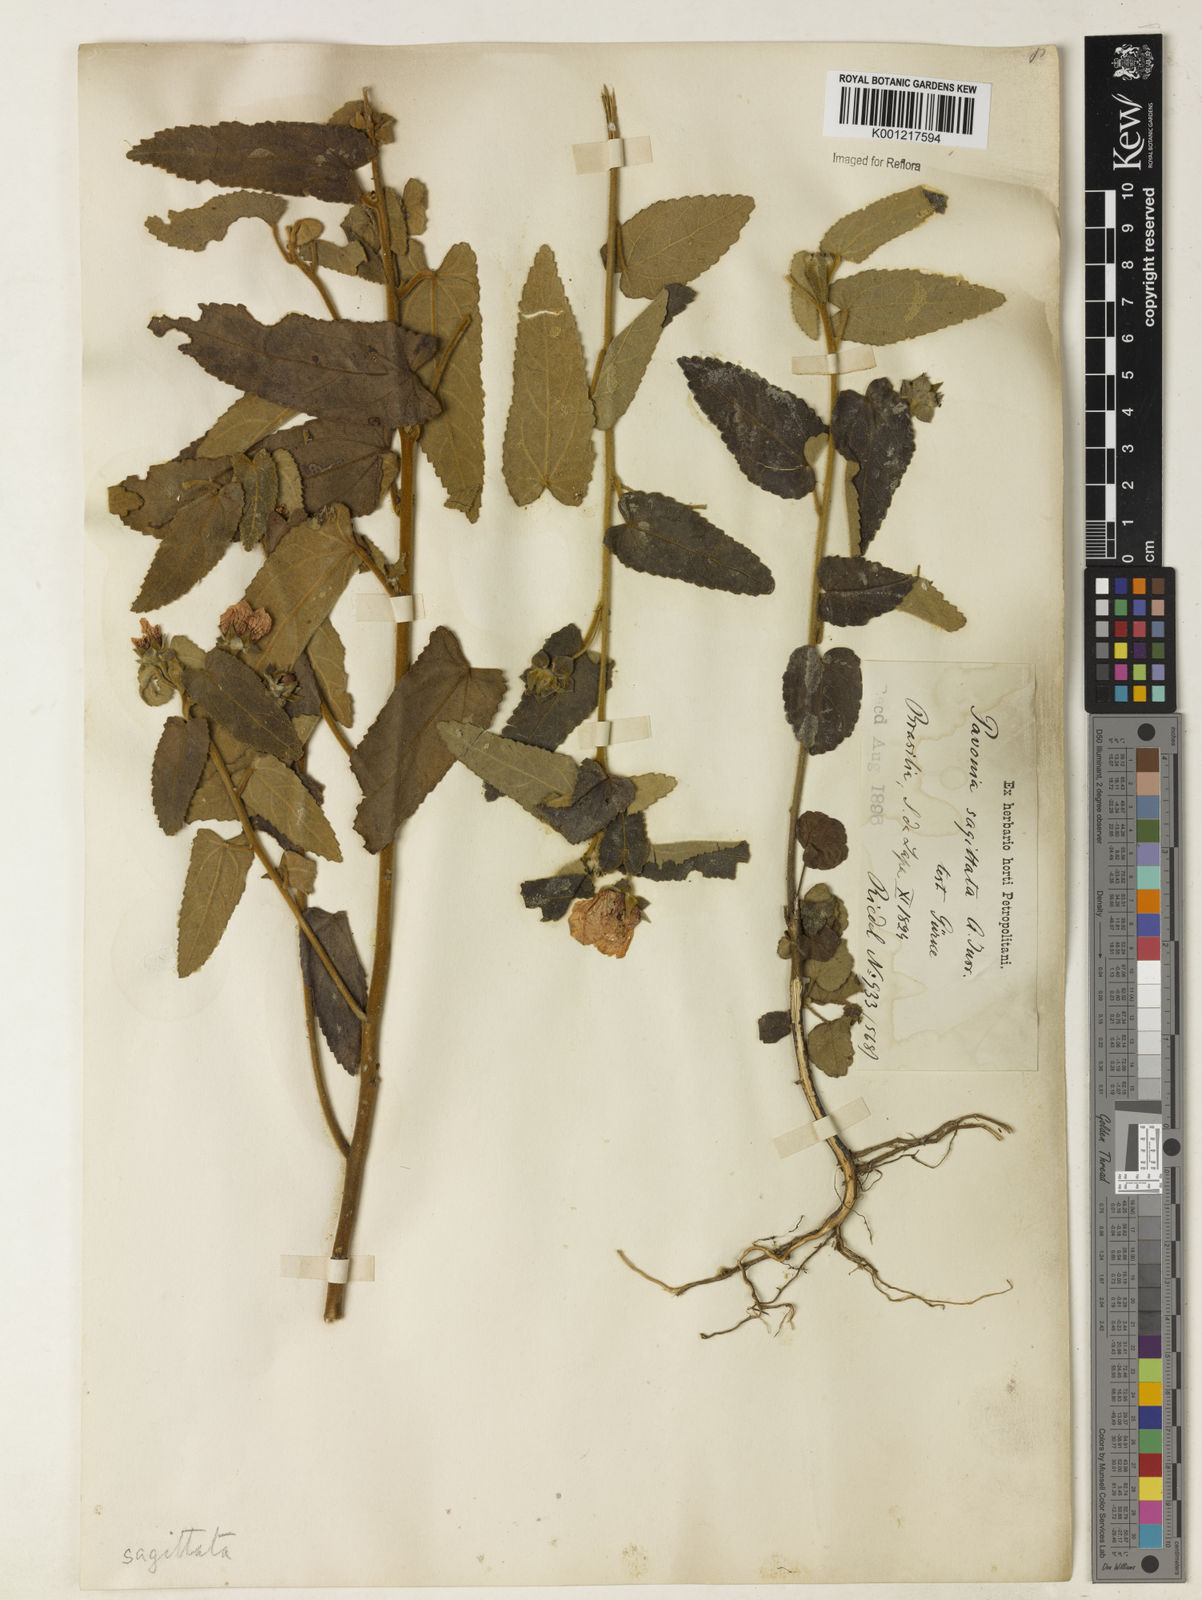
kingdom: Plantae
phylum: Tracheophyta
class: Magnoliopsida
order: Malvales
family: Malvaceae
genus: Pavonia
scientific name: Pavonia
